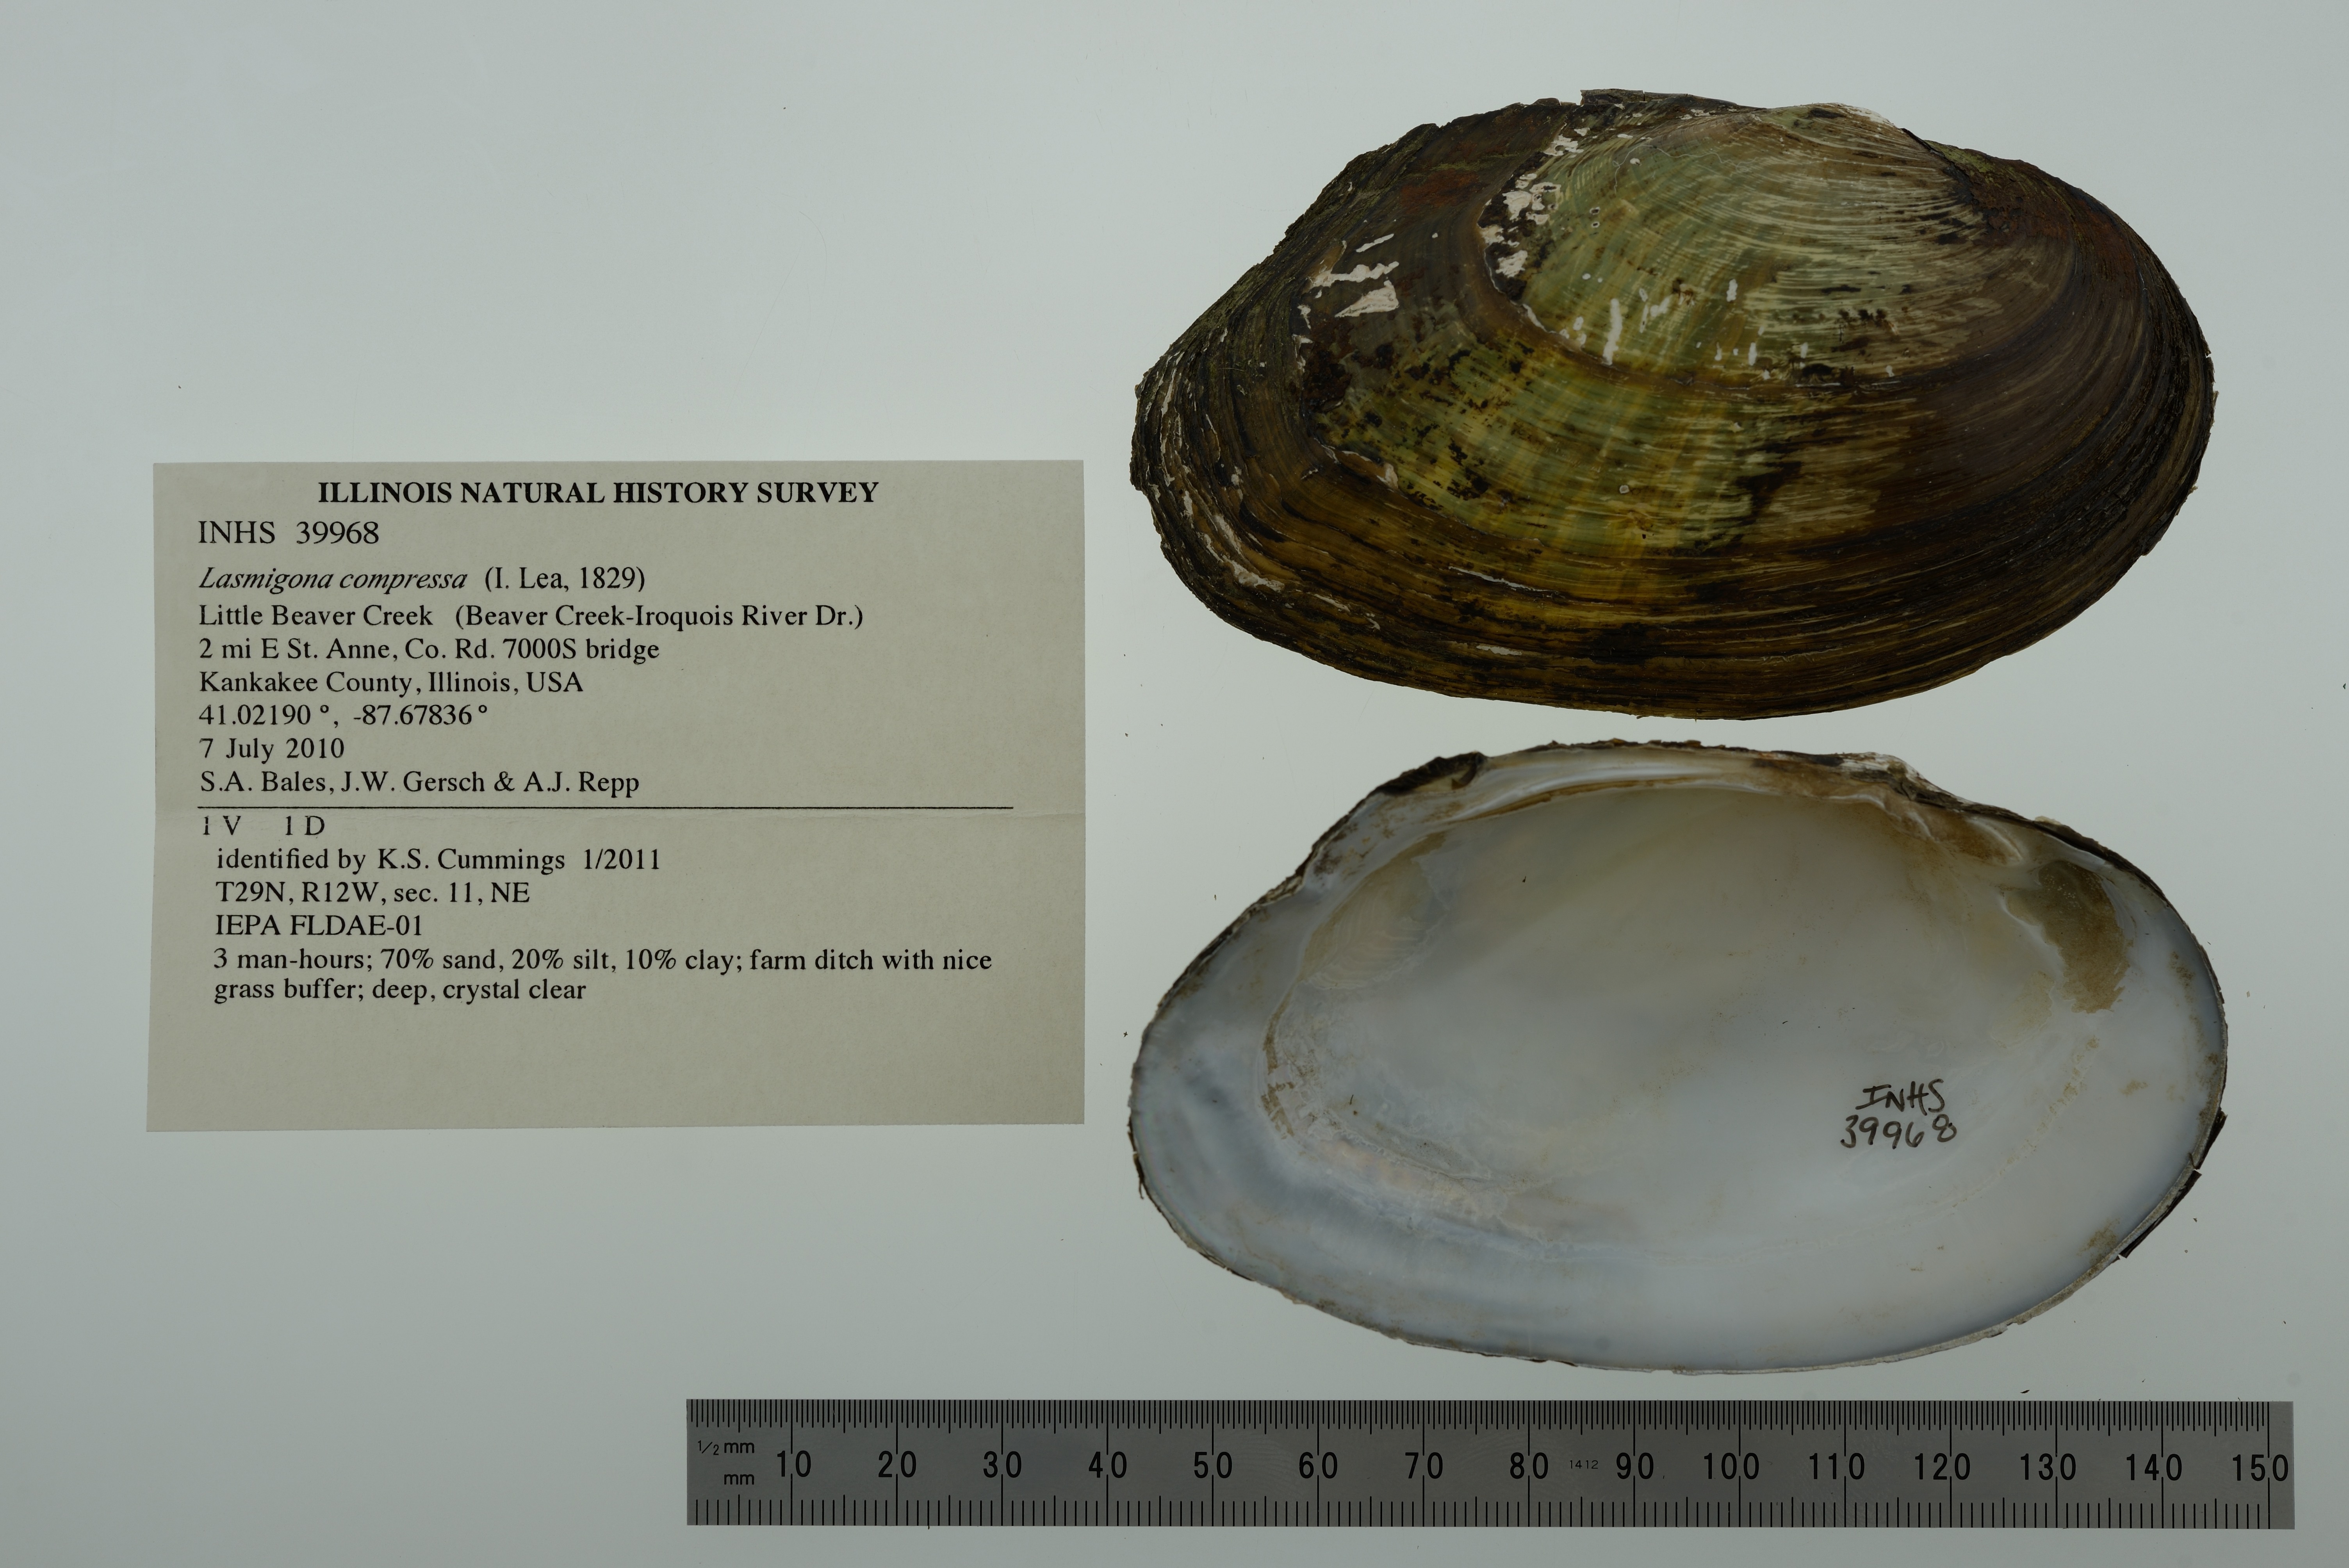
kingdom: Animalia
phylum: Mollusca
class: Bivalvia
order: Unionida
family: Unionidae
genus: Lasmigona
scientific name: Lasmigona compressa
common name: Creek heelsplitter
